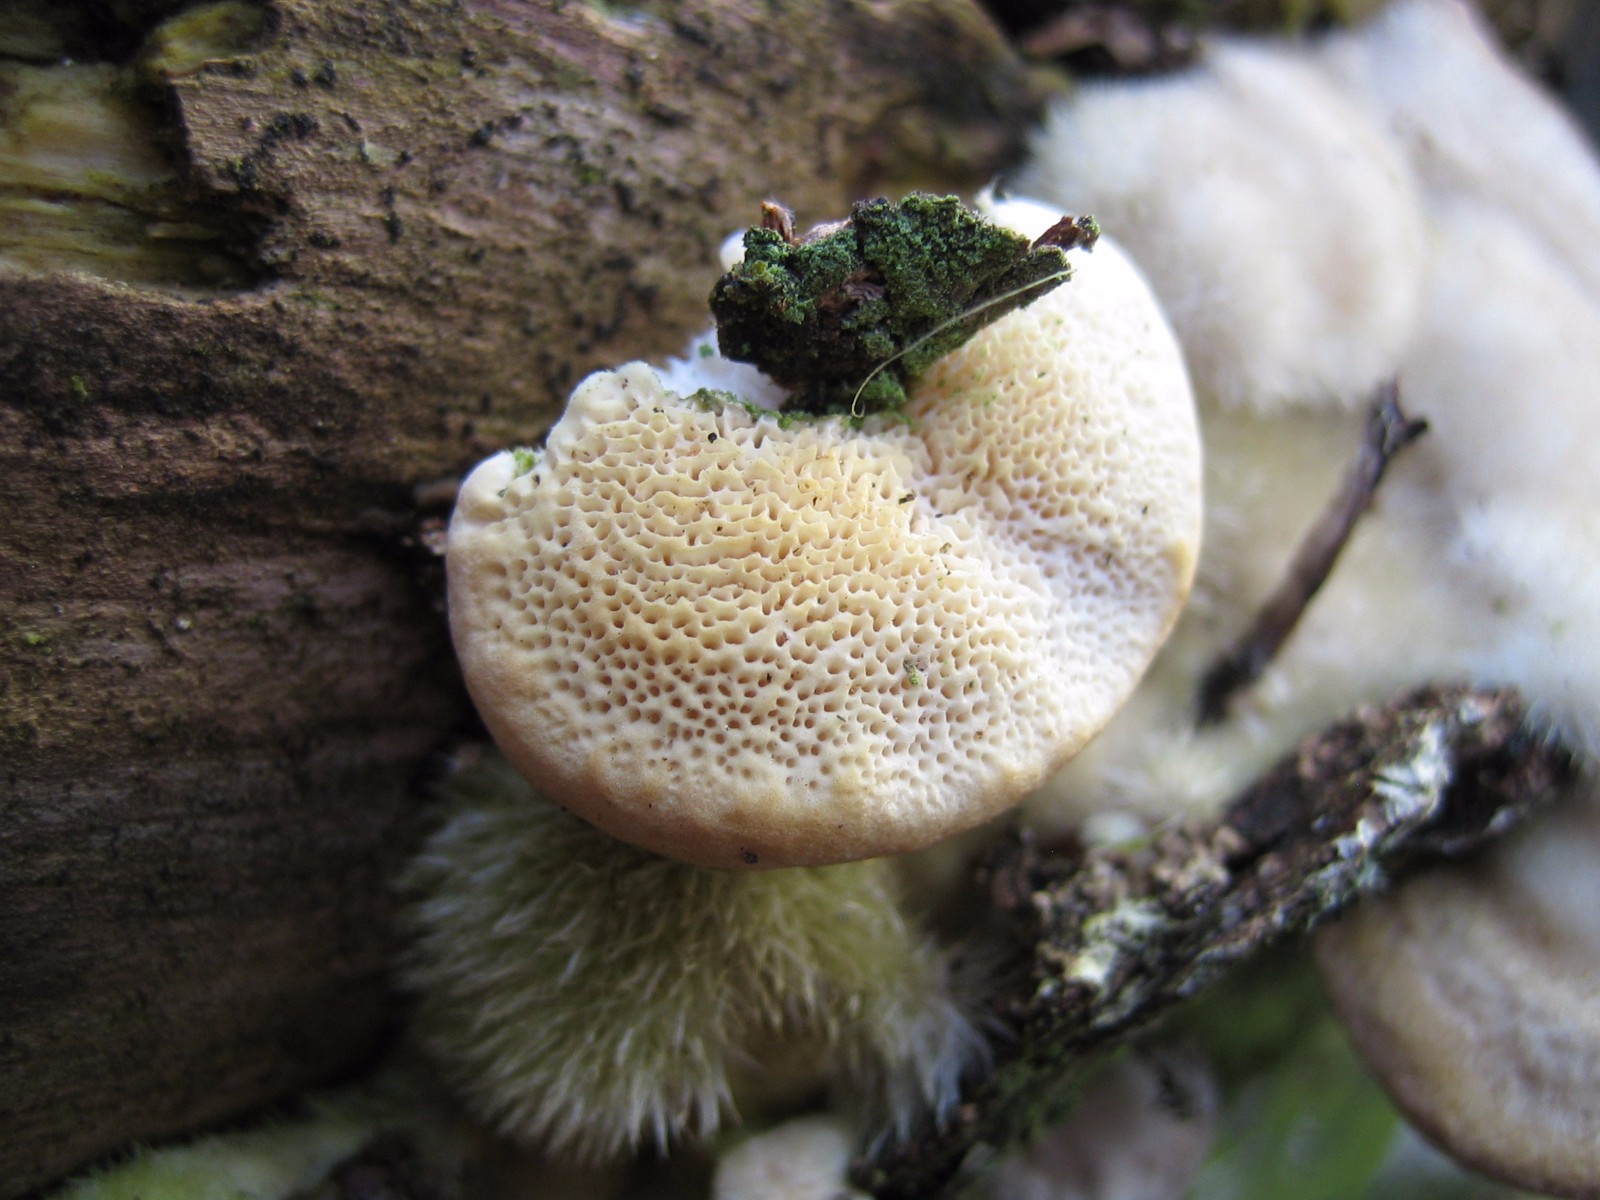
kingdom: Fungi
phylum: Basidiomycota
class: Agaricomycetes
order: Polyporales
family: Polyporaceae
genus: Trametes
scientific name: Trametes hirsuta
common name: håret læderporesvamp
